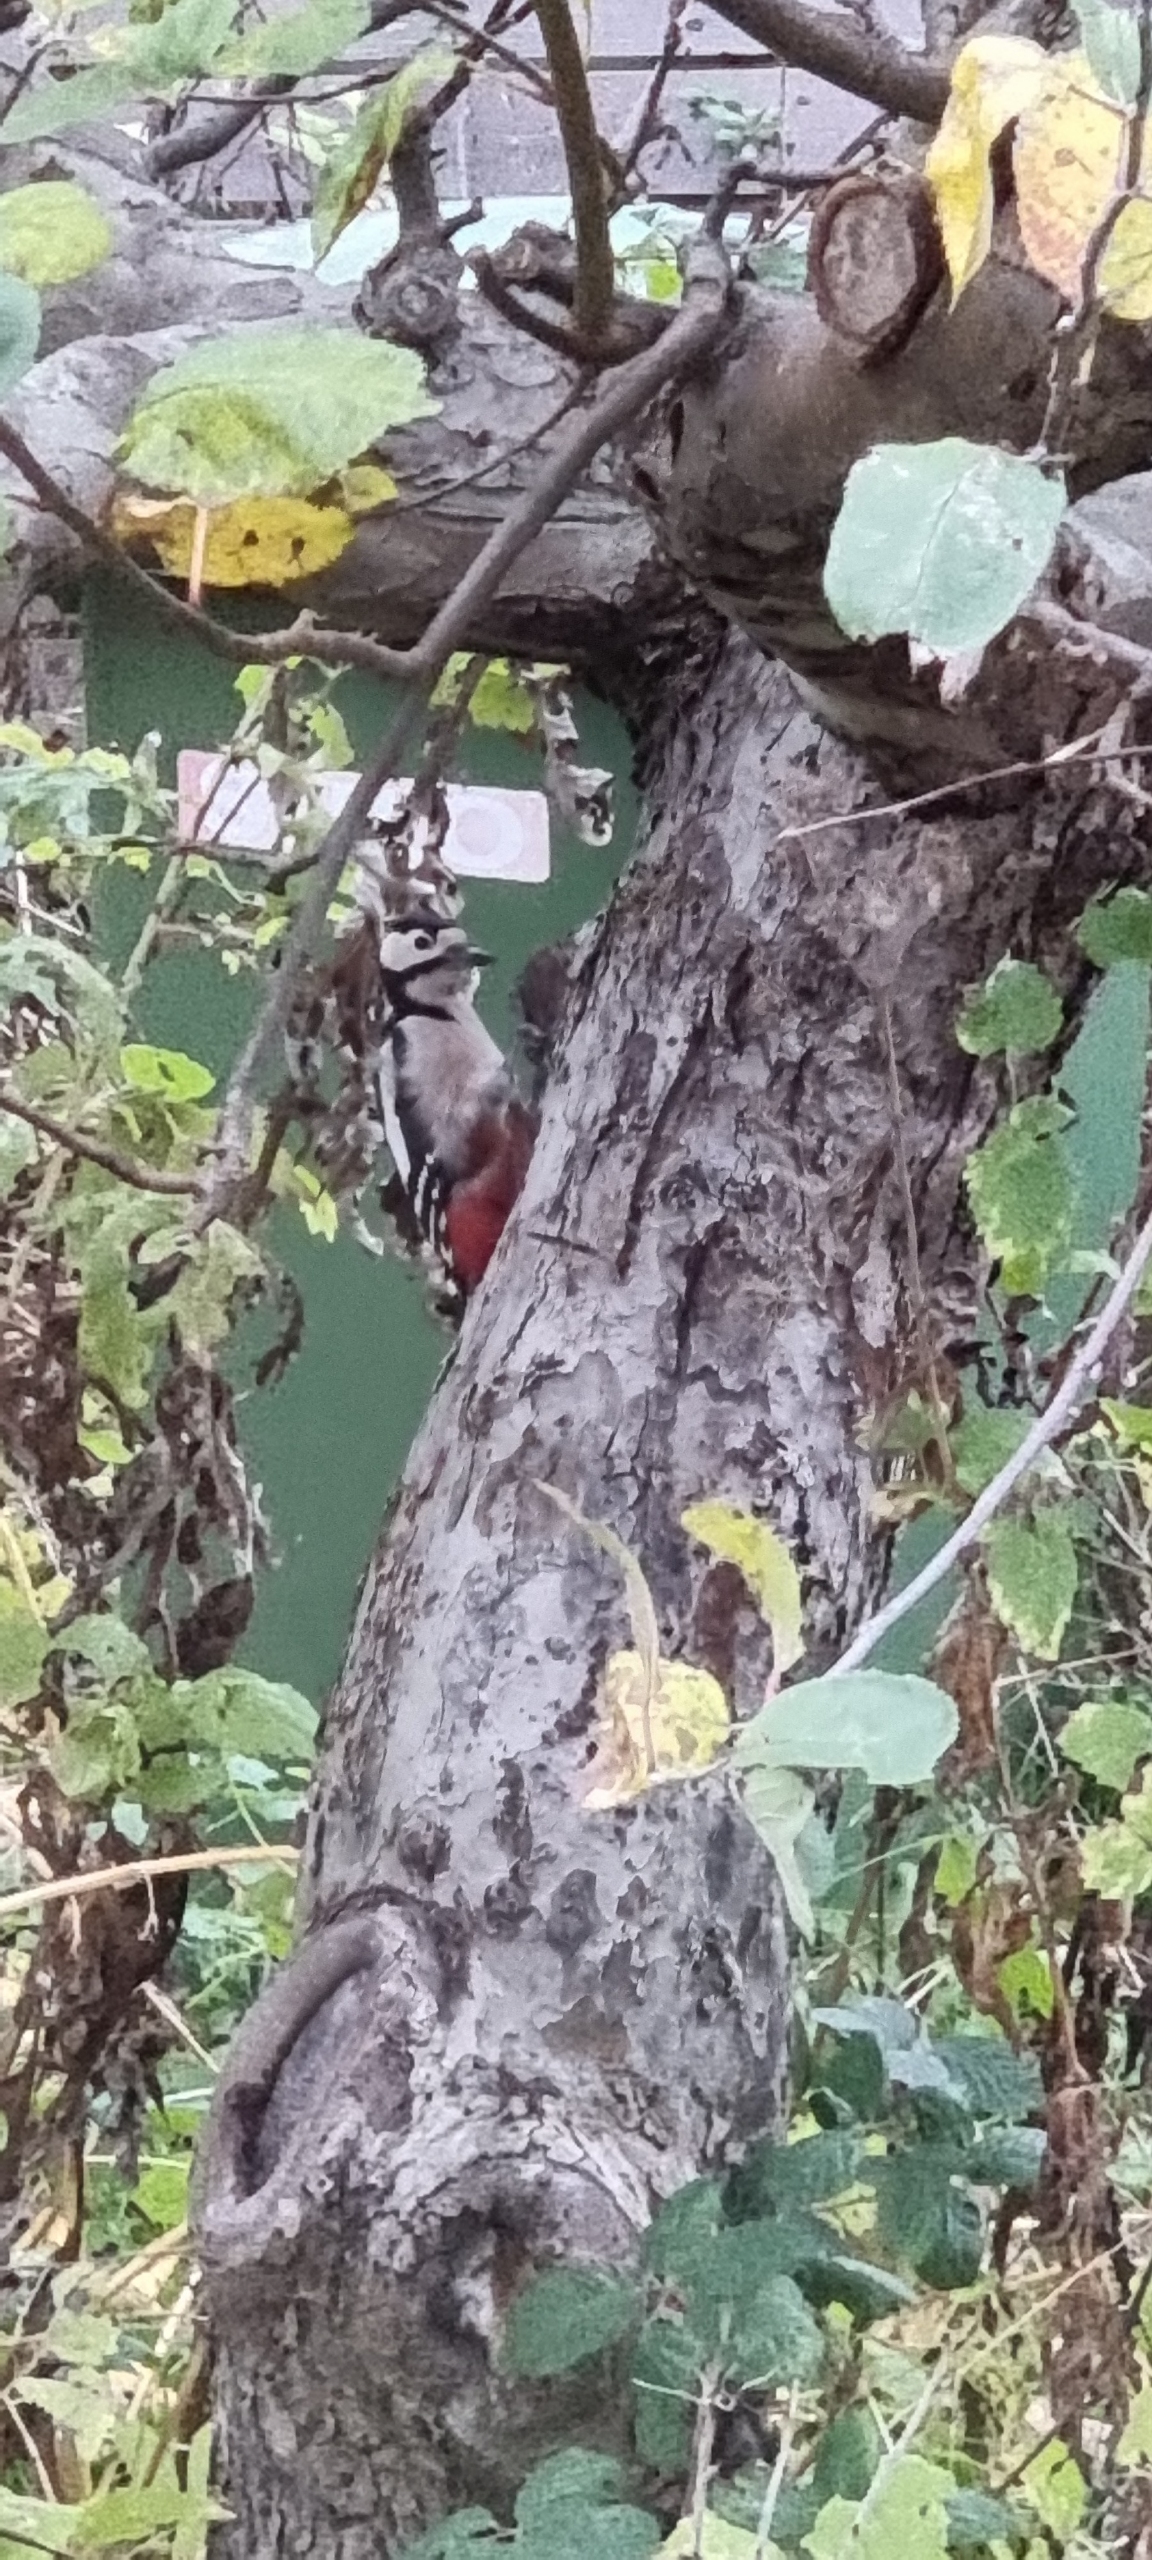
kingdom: Animalia
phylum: Chordata
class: Aves
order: Piciformes
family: Picidae
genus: Dendrocopos
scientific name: Dendrocopos major
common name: Stor flagspætte
